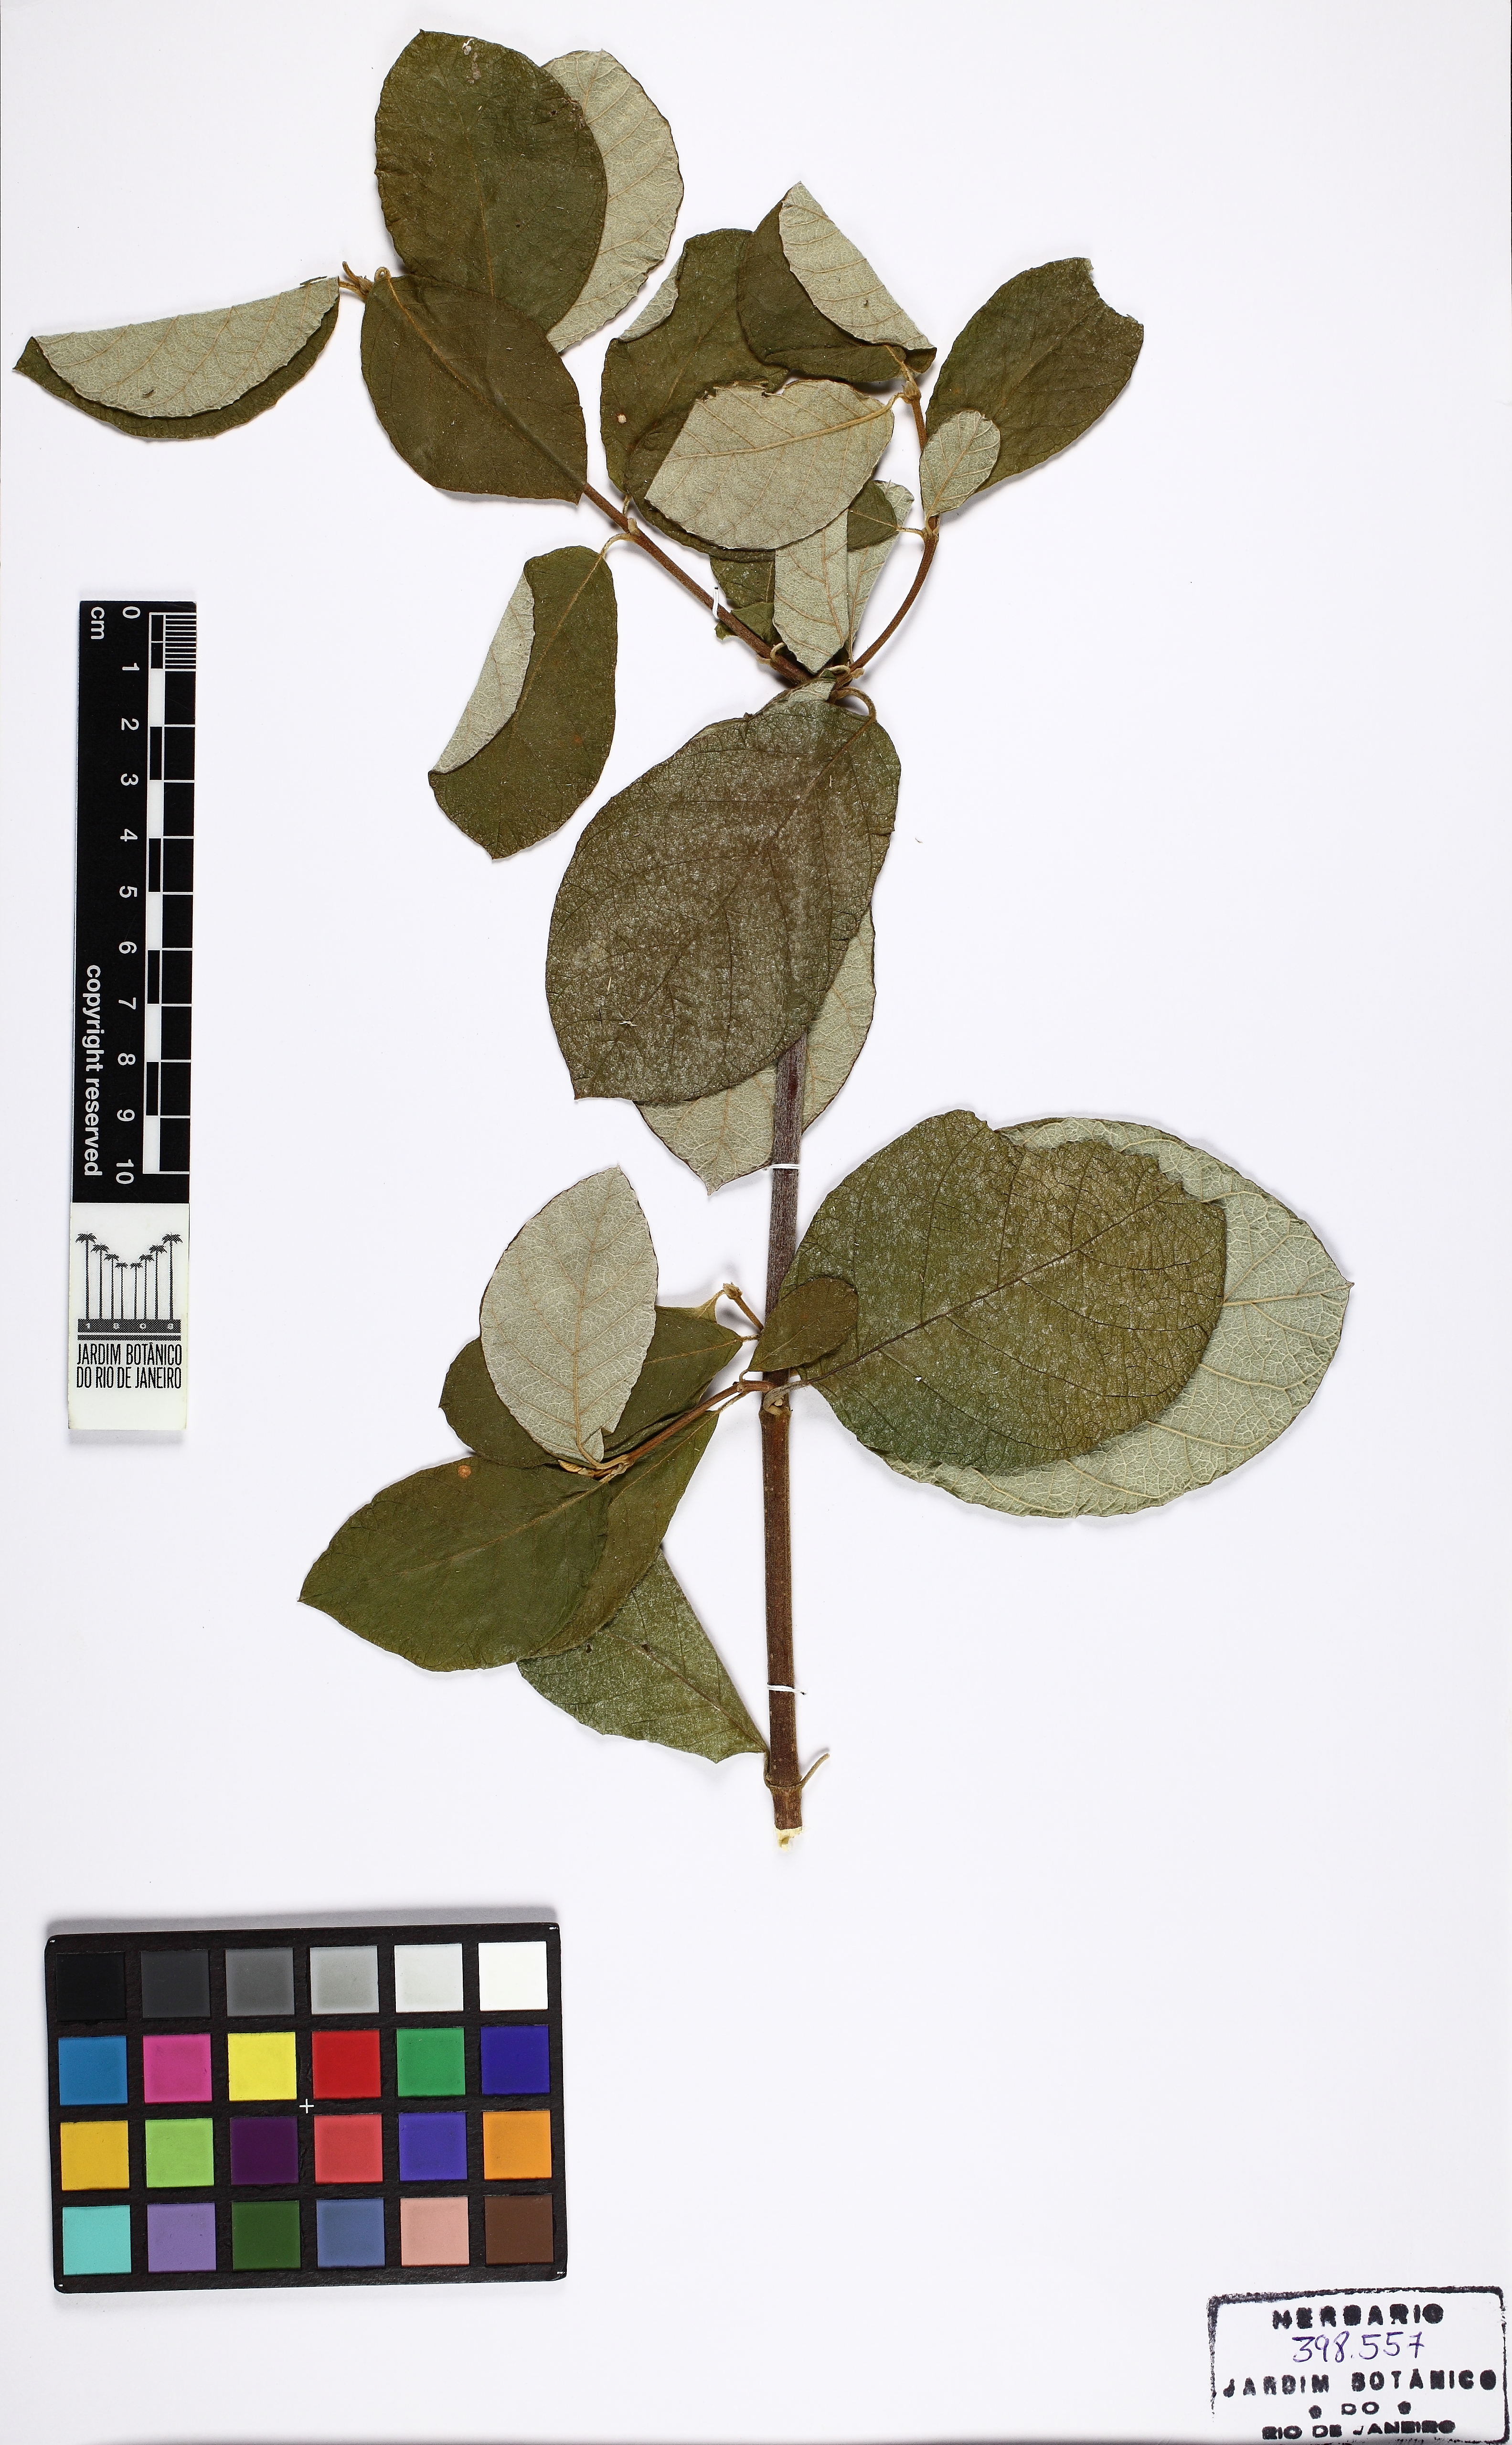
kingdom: Plantae
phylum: Tracheophyta
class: Magnoliopsida
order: Malpighiales
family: Trigoniaceae
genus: Trigonia
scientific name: Trigonia villosa
